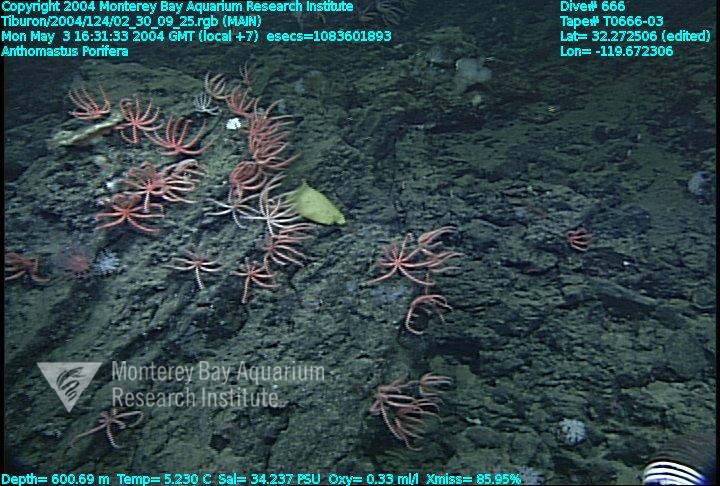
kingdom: Animalia
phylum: Porifera
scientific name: Porifera
